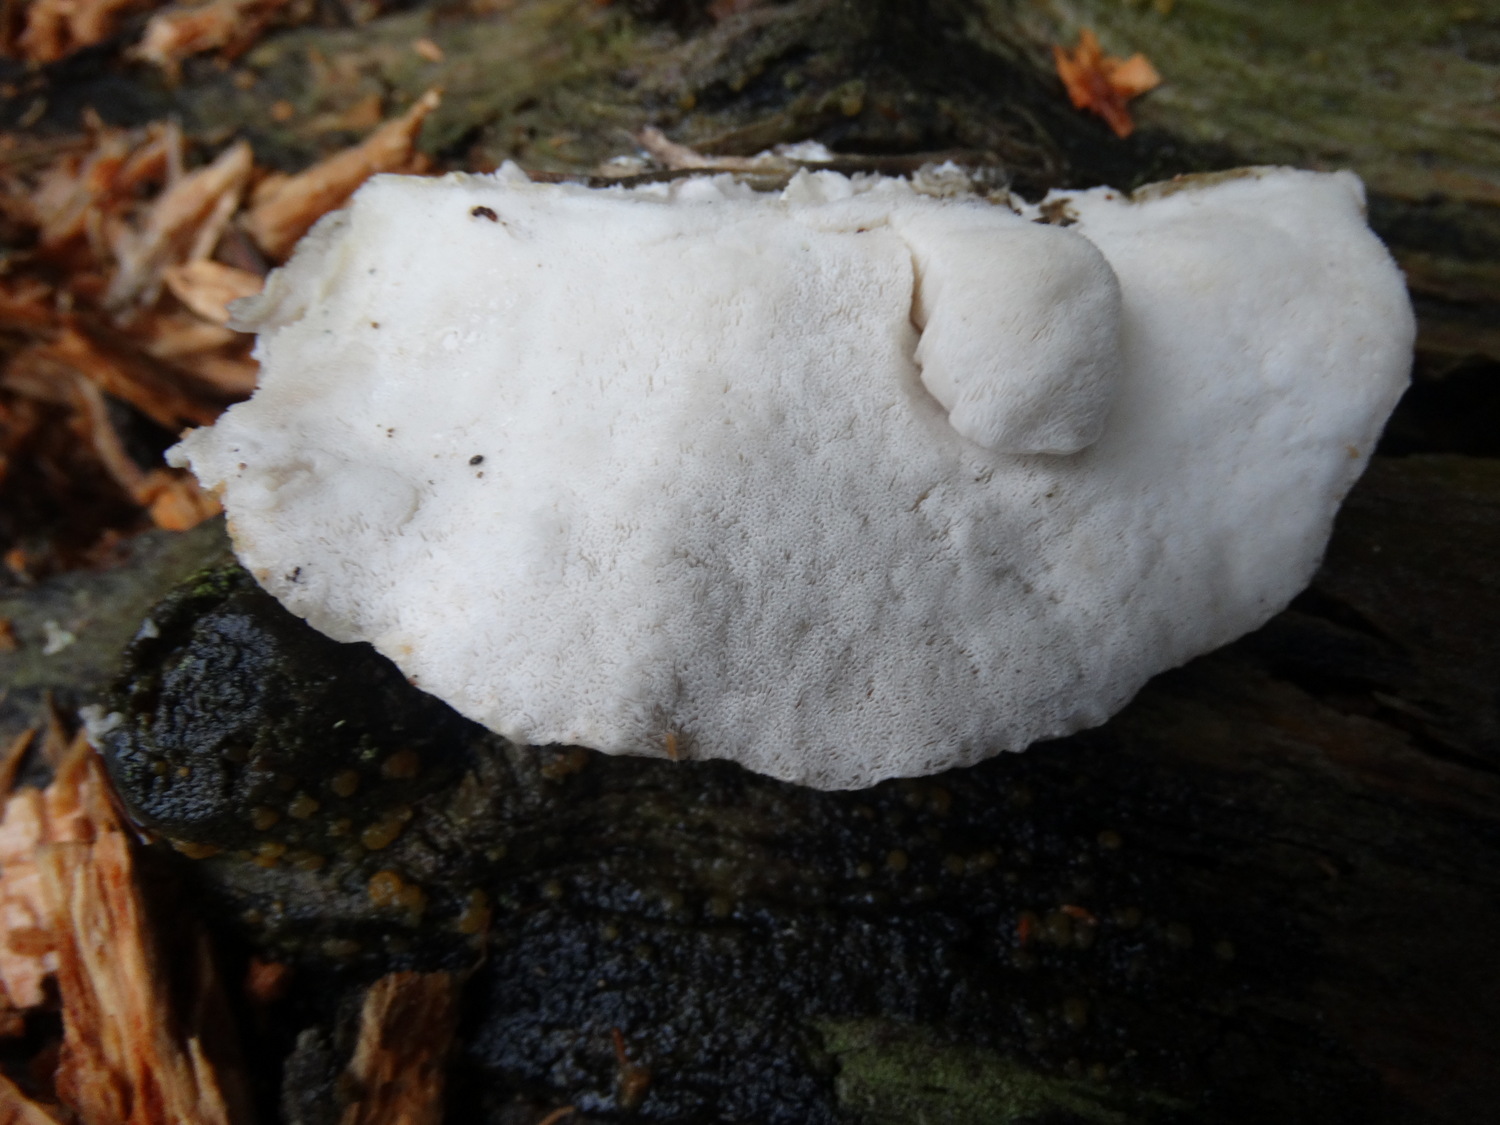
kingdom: Fungi
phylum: Basidiomycota
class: Agaricomycetes
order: Polyporales
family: Incrustoporiaceae
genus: Tyromyces
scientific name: Tyromyces lacteus
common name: mælkehvid kødporesvamp
